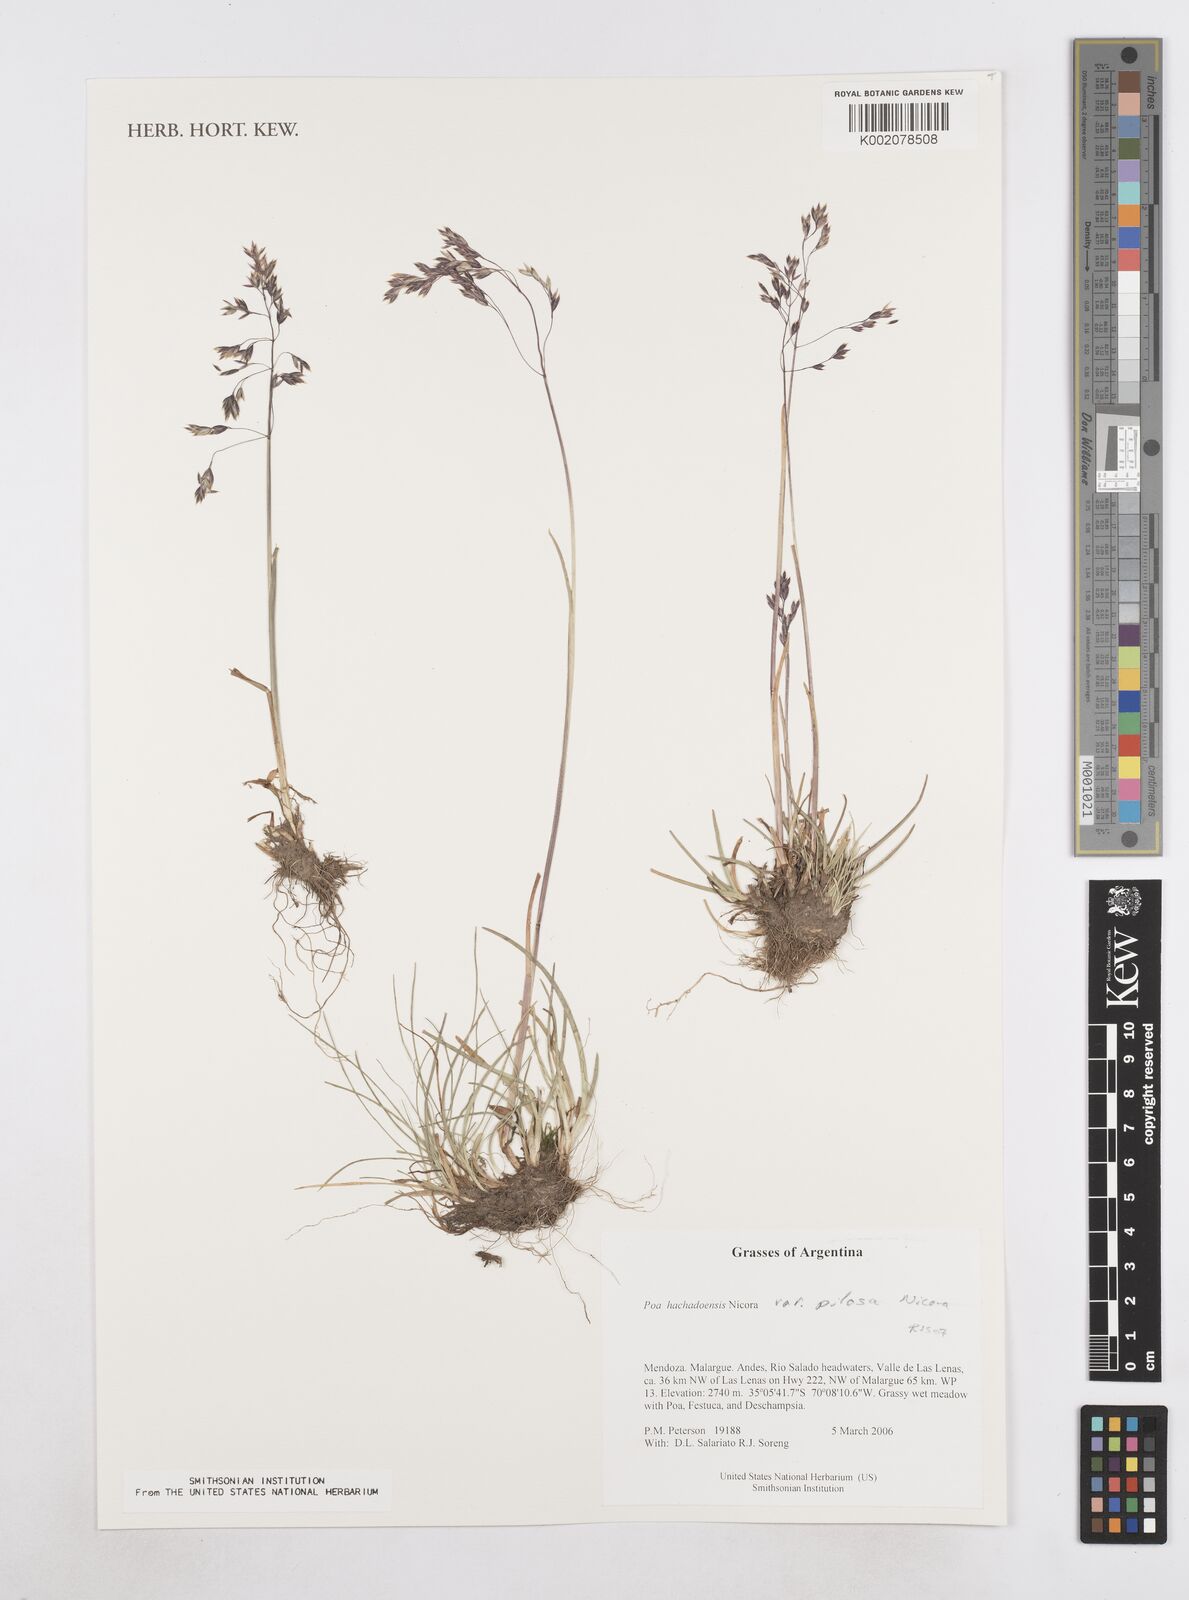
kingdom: Plantae
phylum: Tracheophyta
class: Liliopsida
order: Poales
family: Poaceae
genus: Poa
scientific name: Poa hachadoensis
